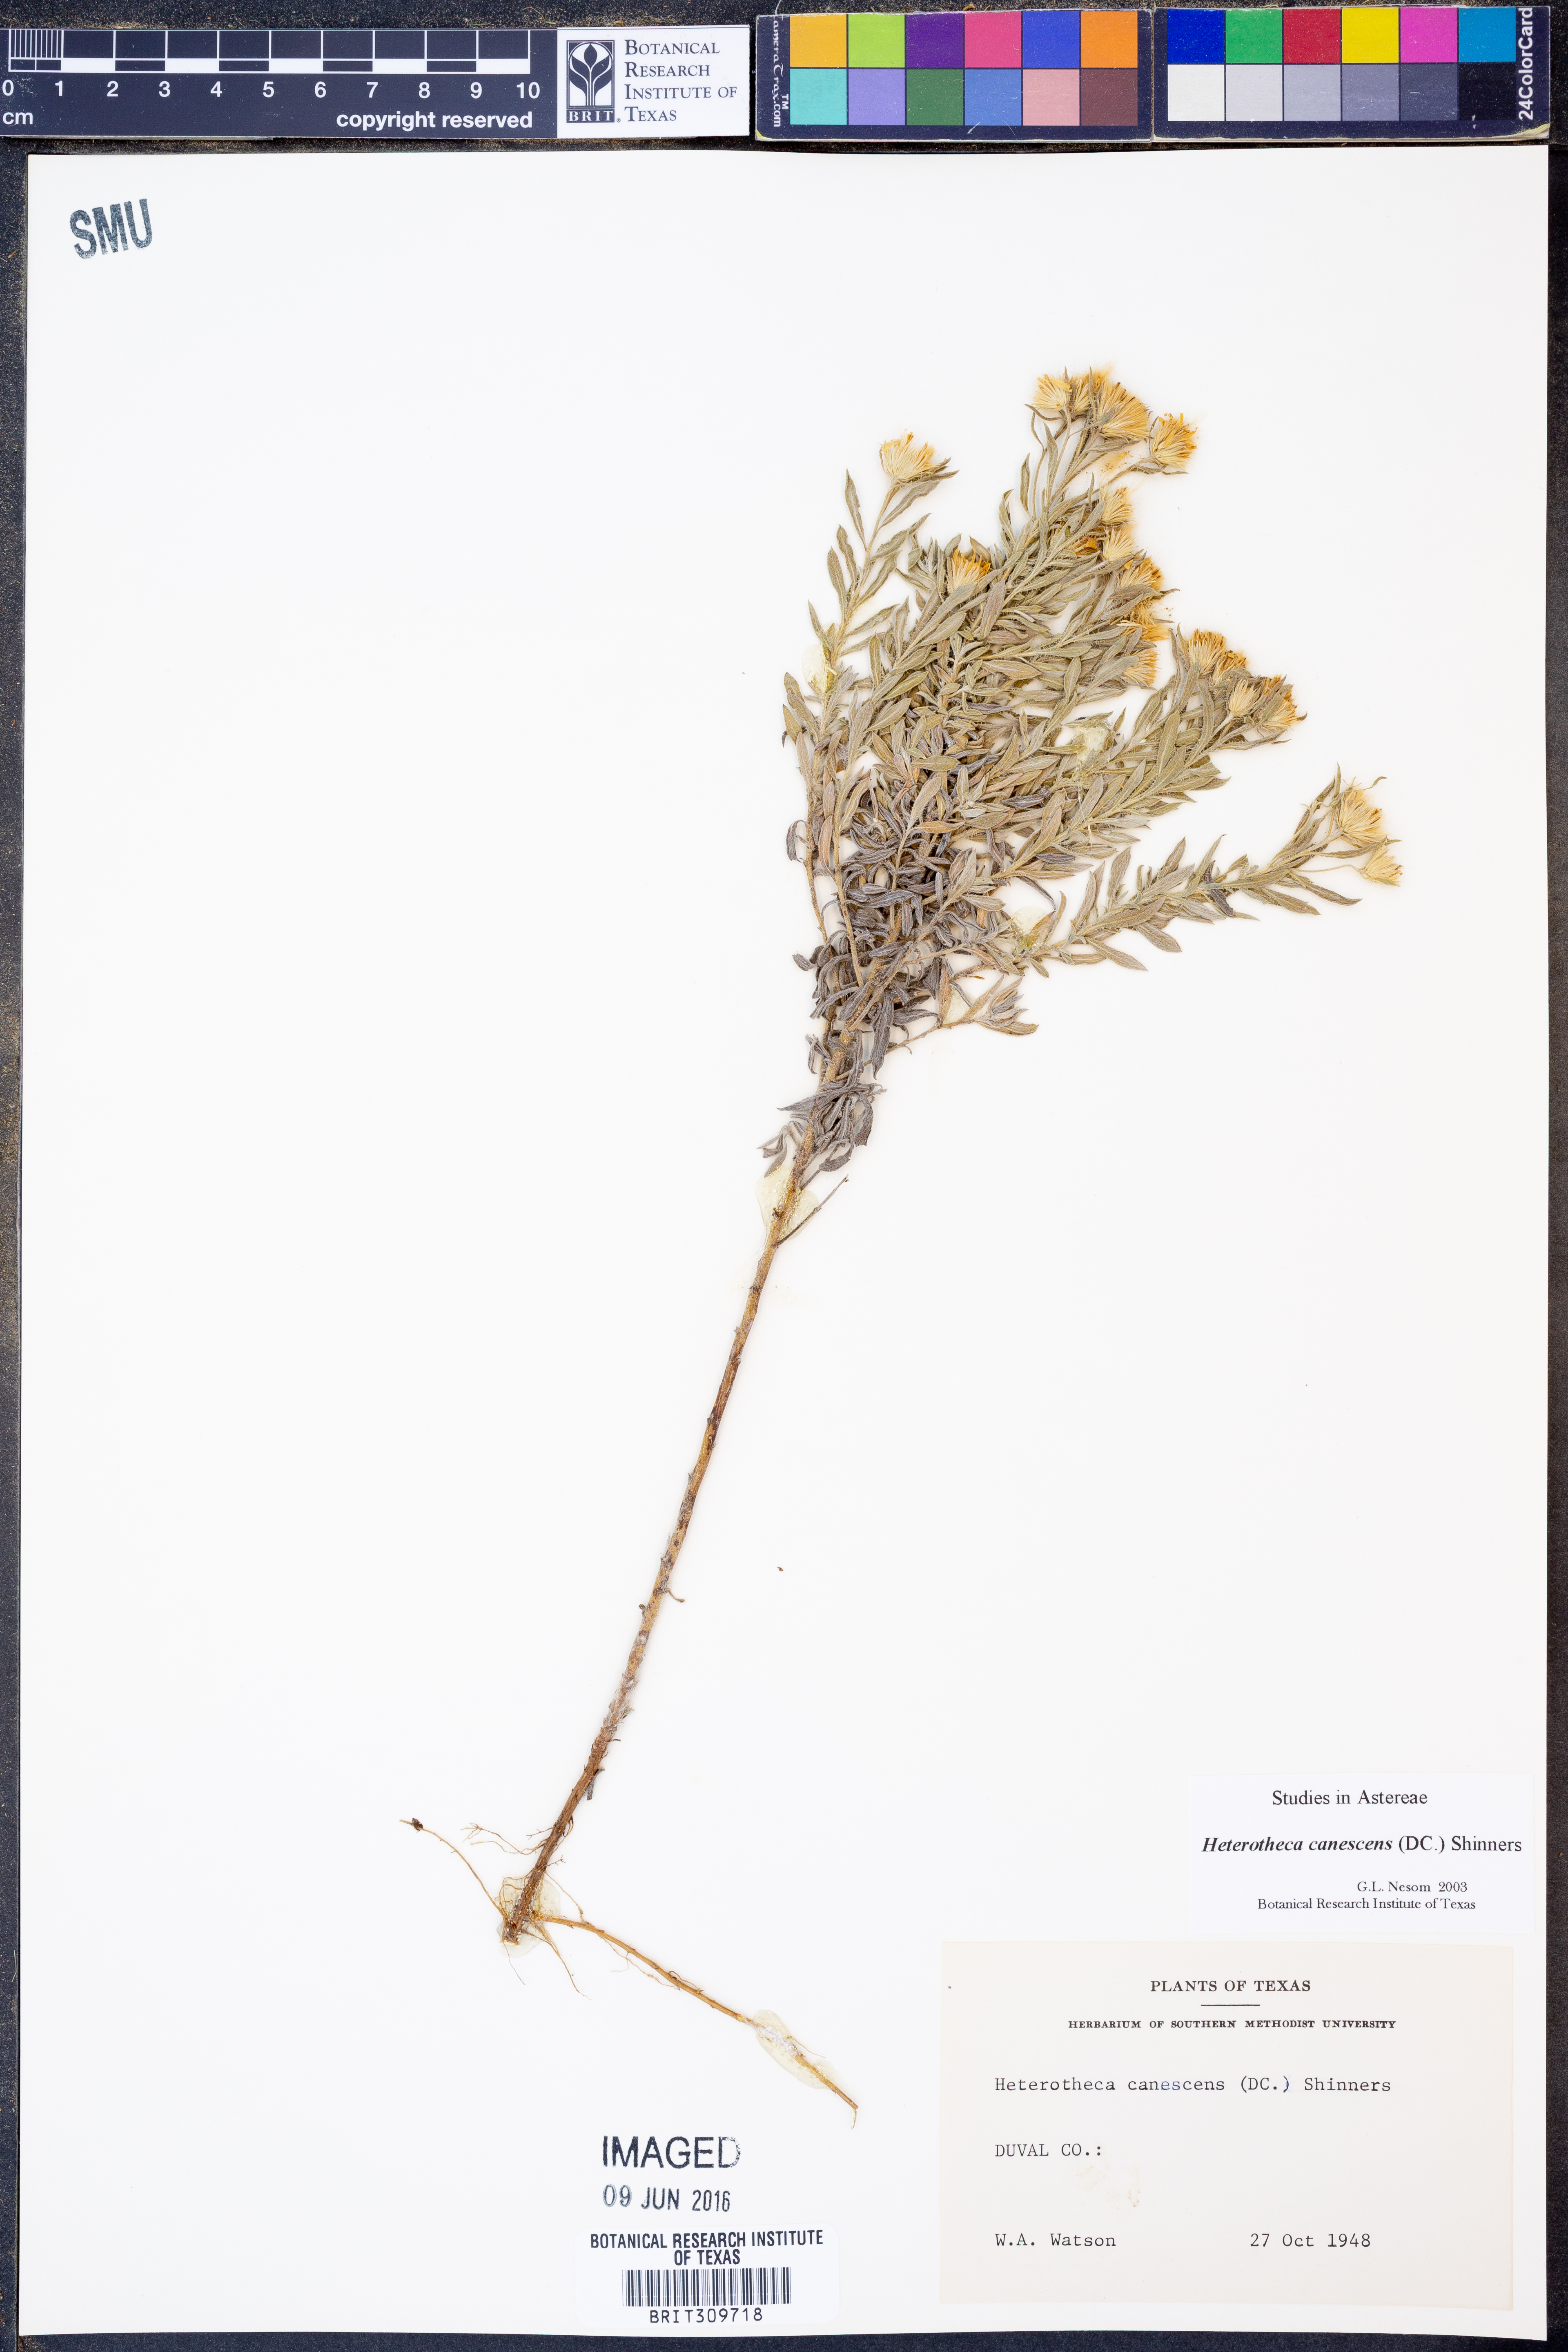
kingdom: Plantae
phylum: Tracheophyta
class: Magnoliopsida
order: Asterales
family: Asteraceae
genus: Heterotheca
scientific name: Heterotheca canescens
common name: Hoary golden-aster
